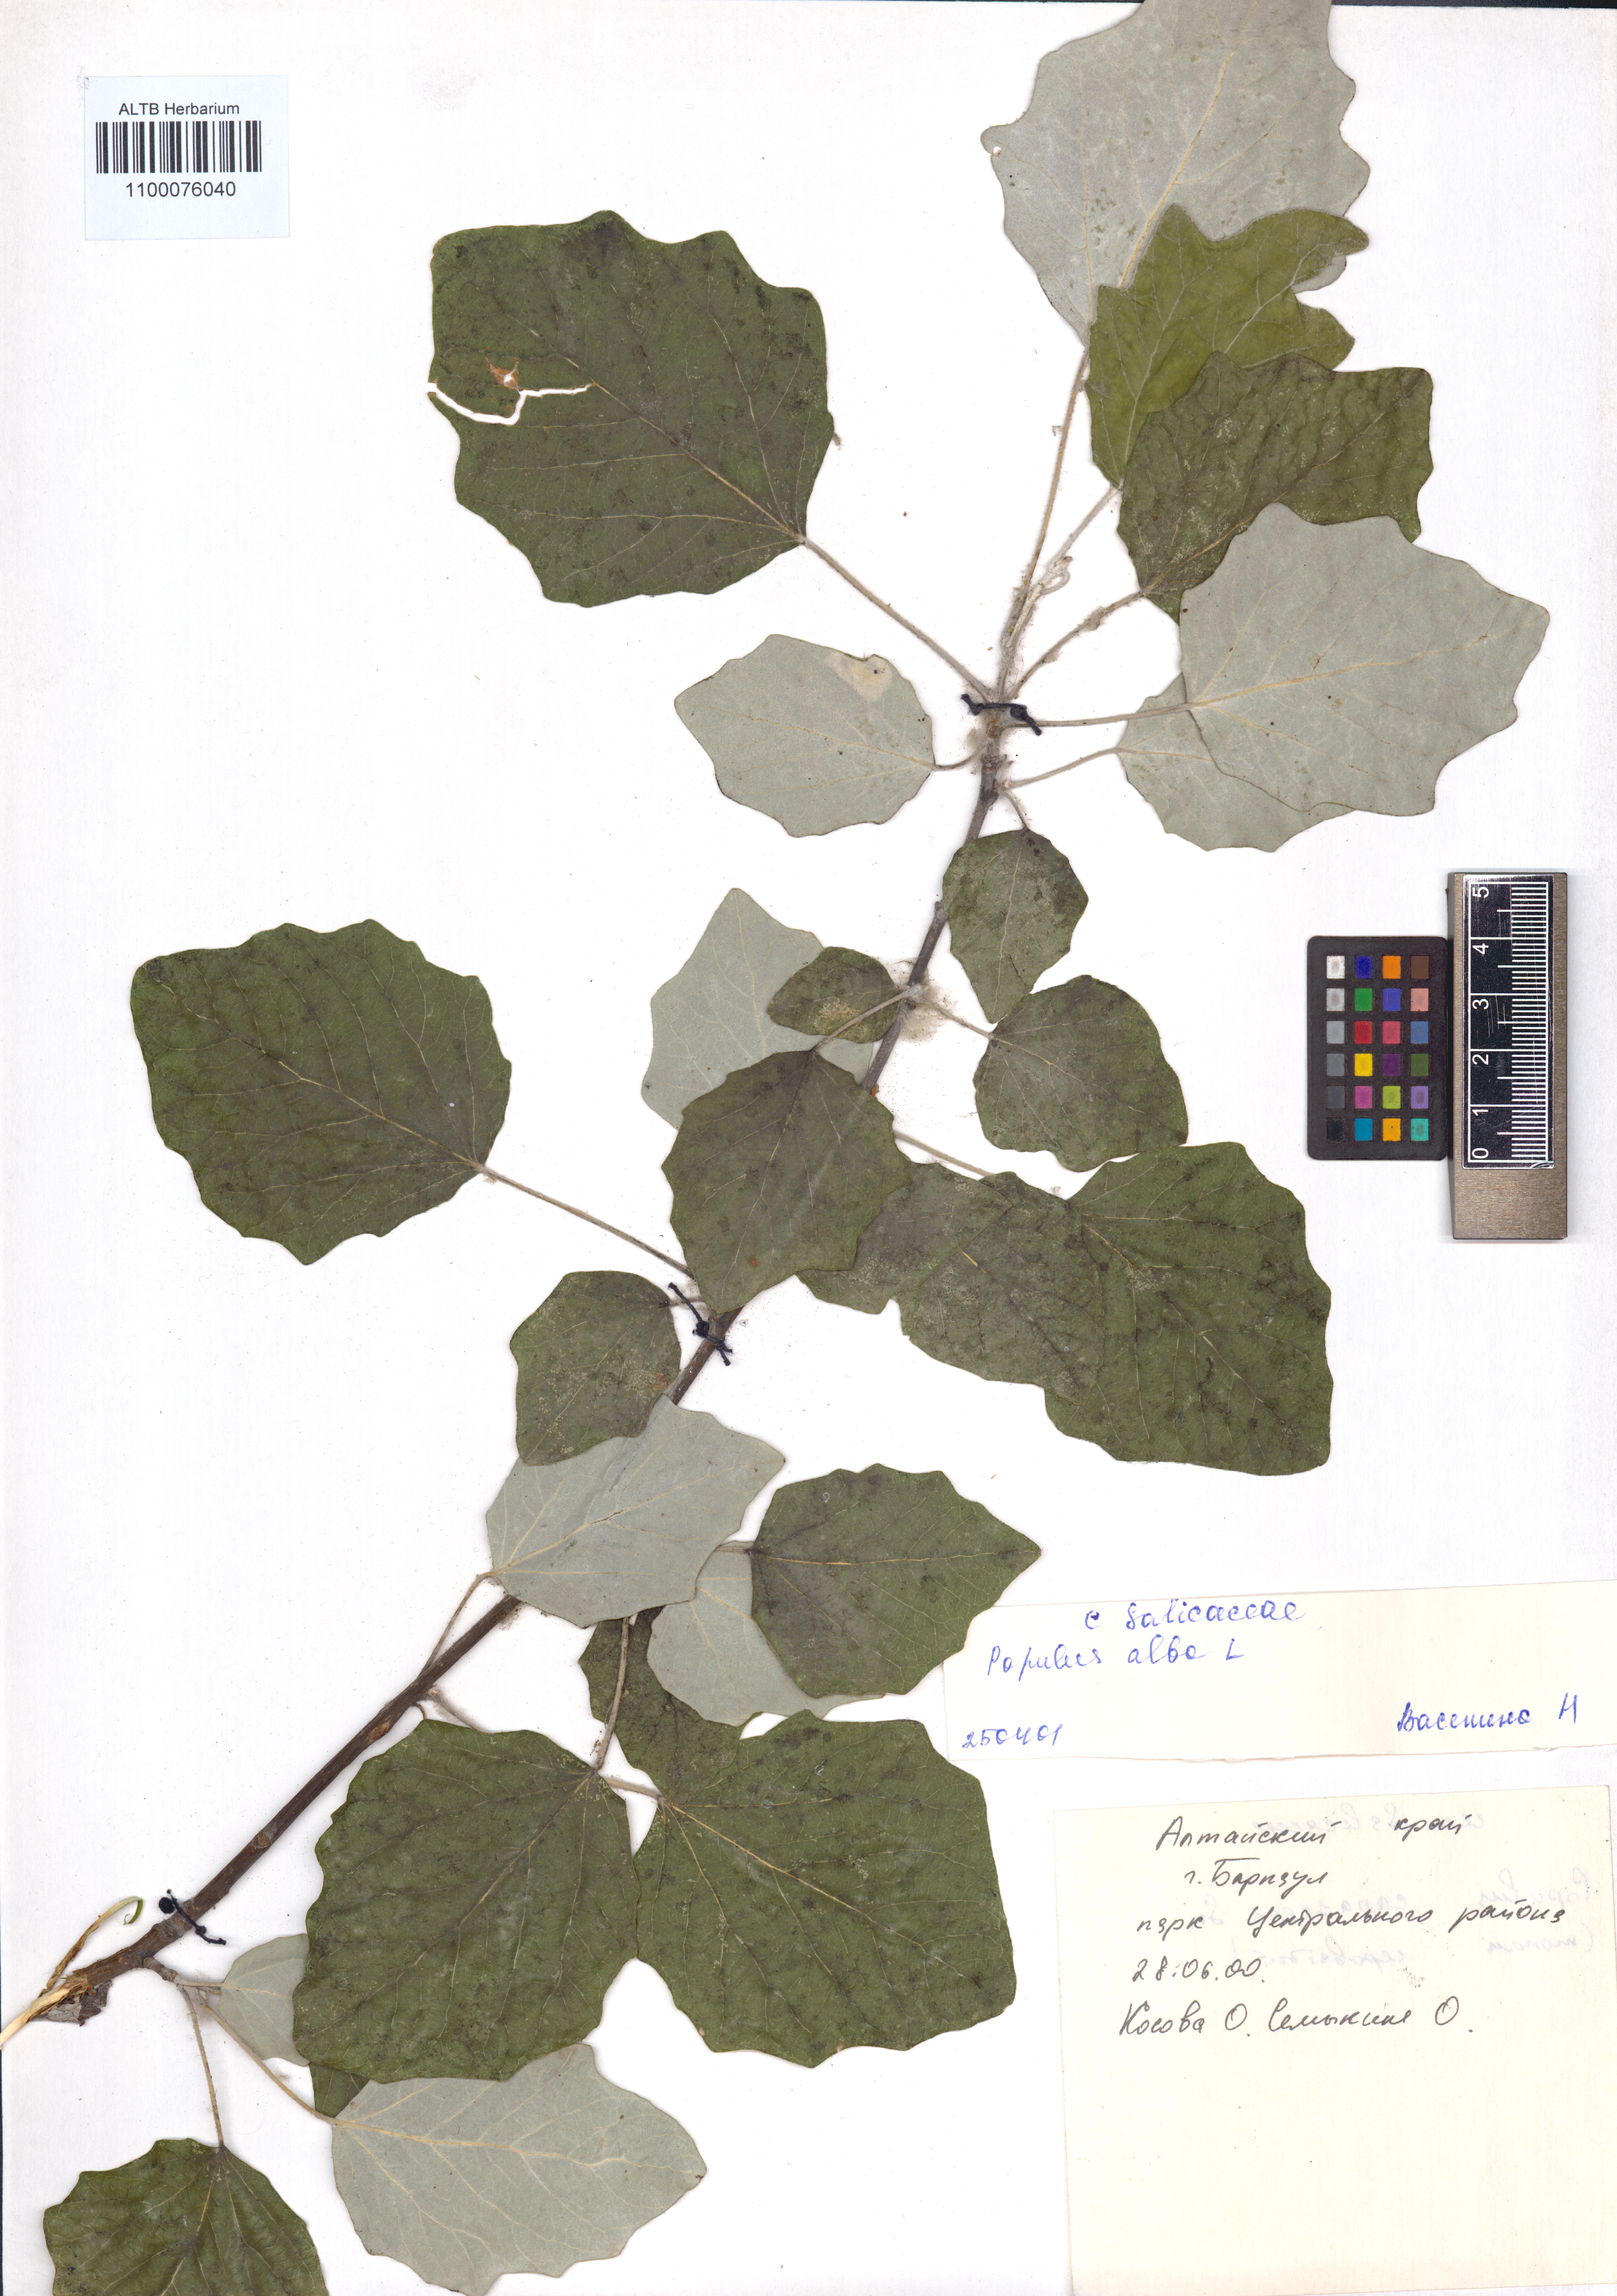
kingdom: Plantae
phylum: Tracheophyta
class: Magnoliopsida
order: Malpighiales
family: Salicaceae
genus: Populus
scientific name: Populus alba
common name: White poplar
